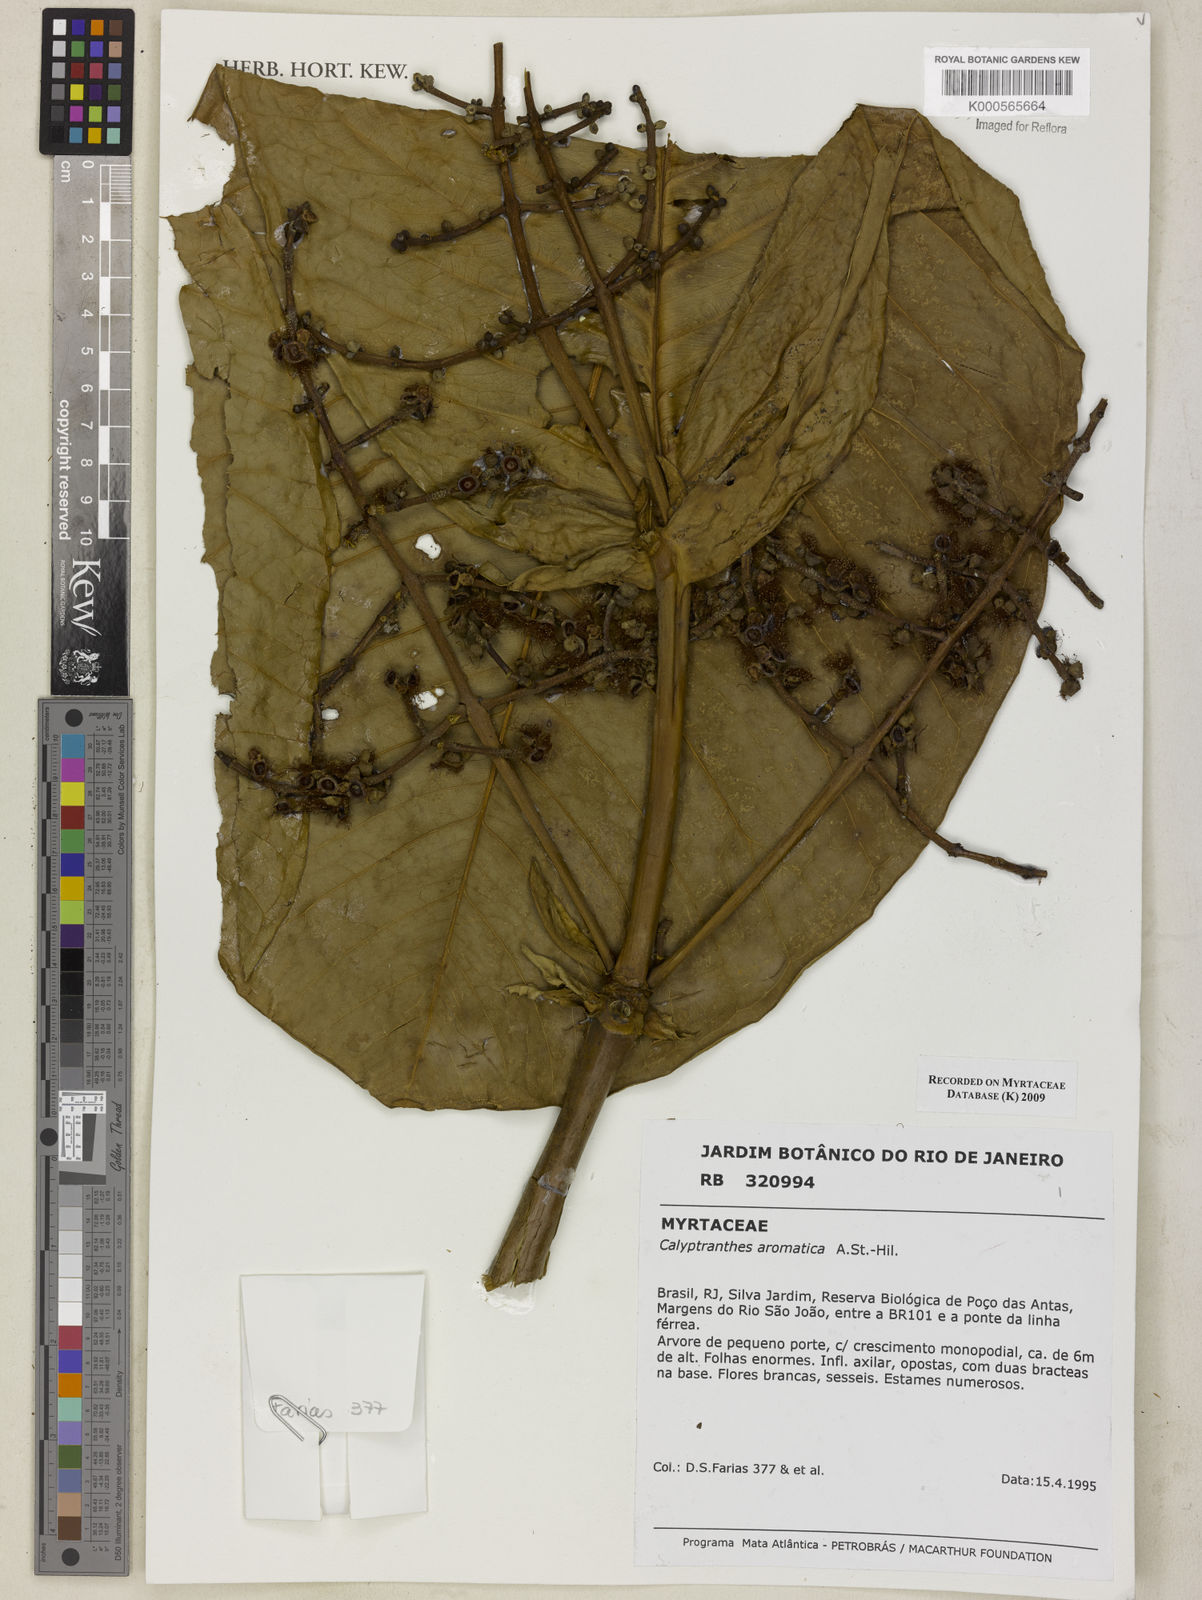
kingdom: Plantae
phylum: Tracheophyta
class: Magnoliopsida
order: Myrtales
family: Myrtaceae
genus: Myrcia
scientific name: Myrcia carioca
